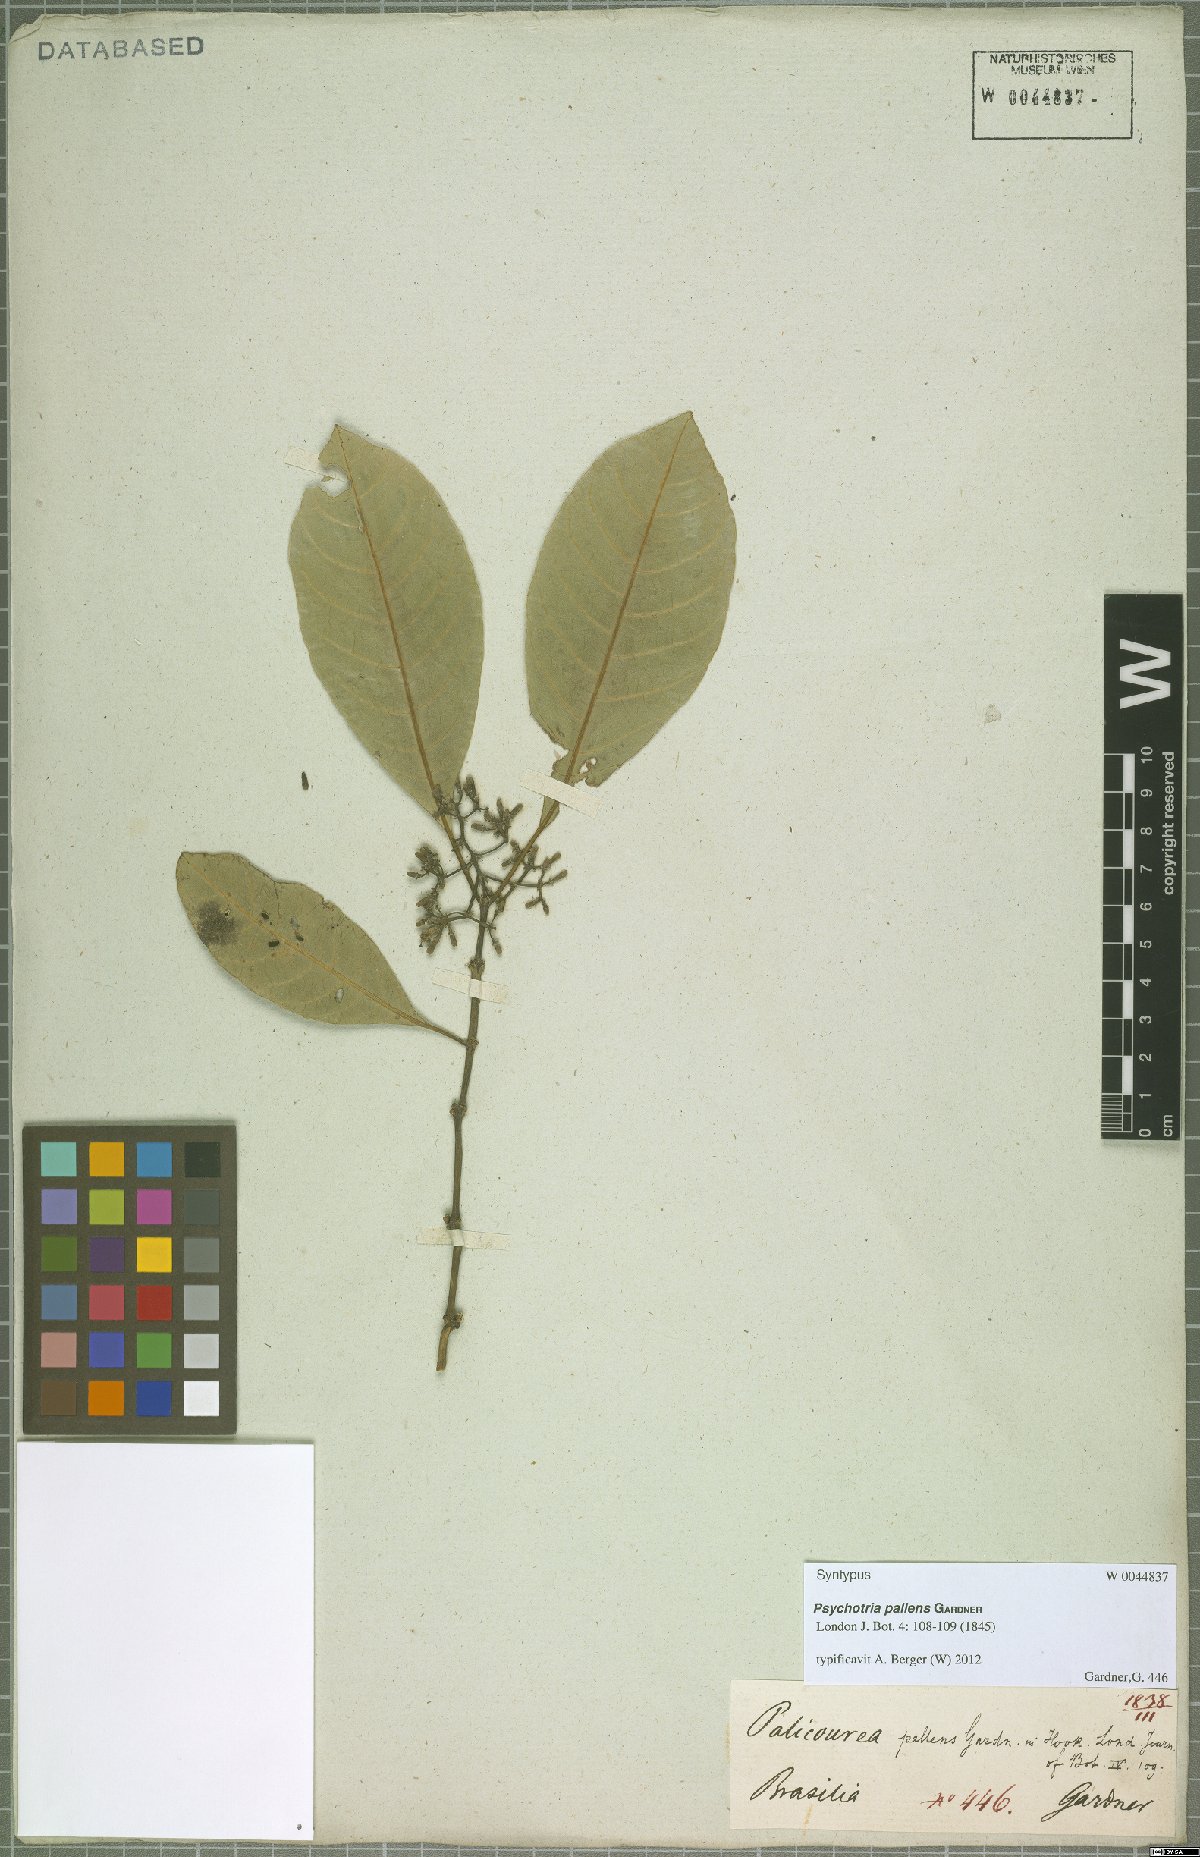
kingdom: Plantae
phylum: Tracheophyta
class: Magnoliopsida
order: Gentianales
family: Rubiaceae
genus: Psychotria
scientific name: Psychotria pallens
